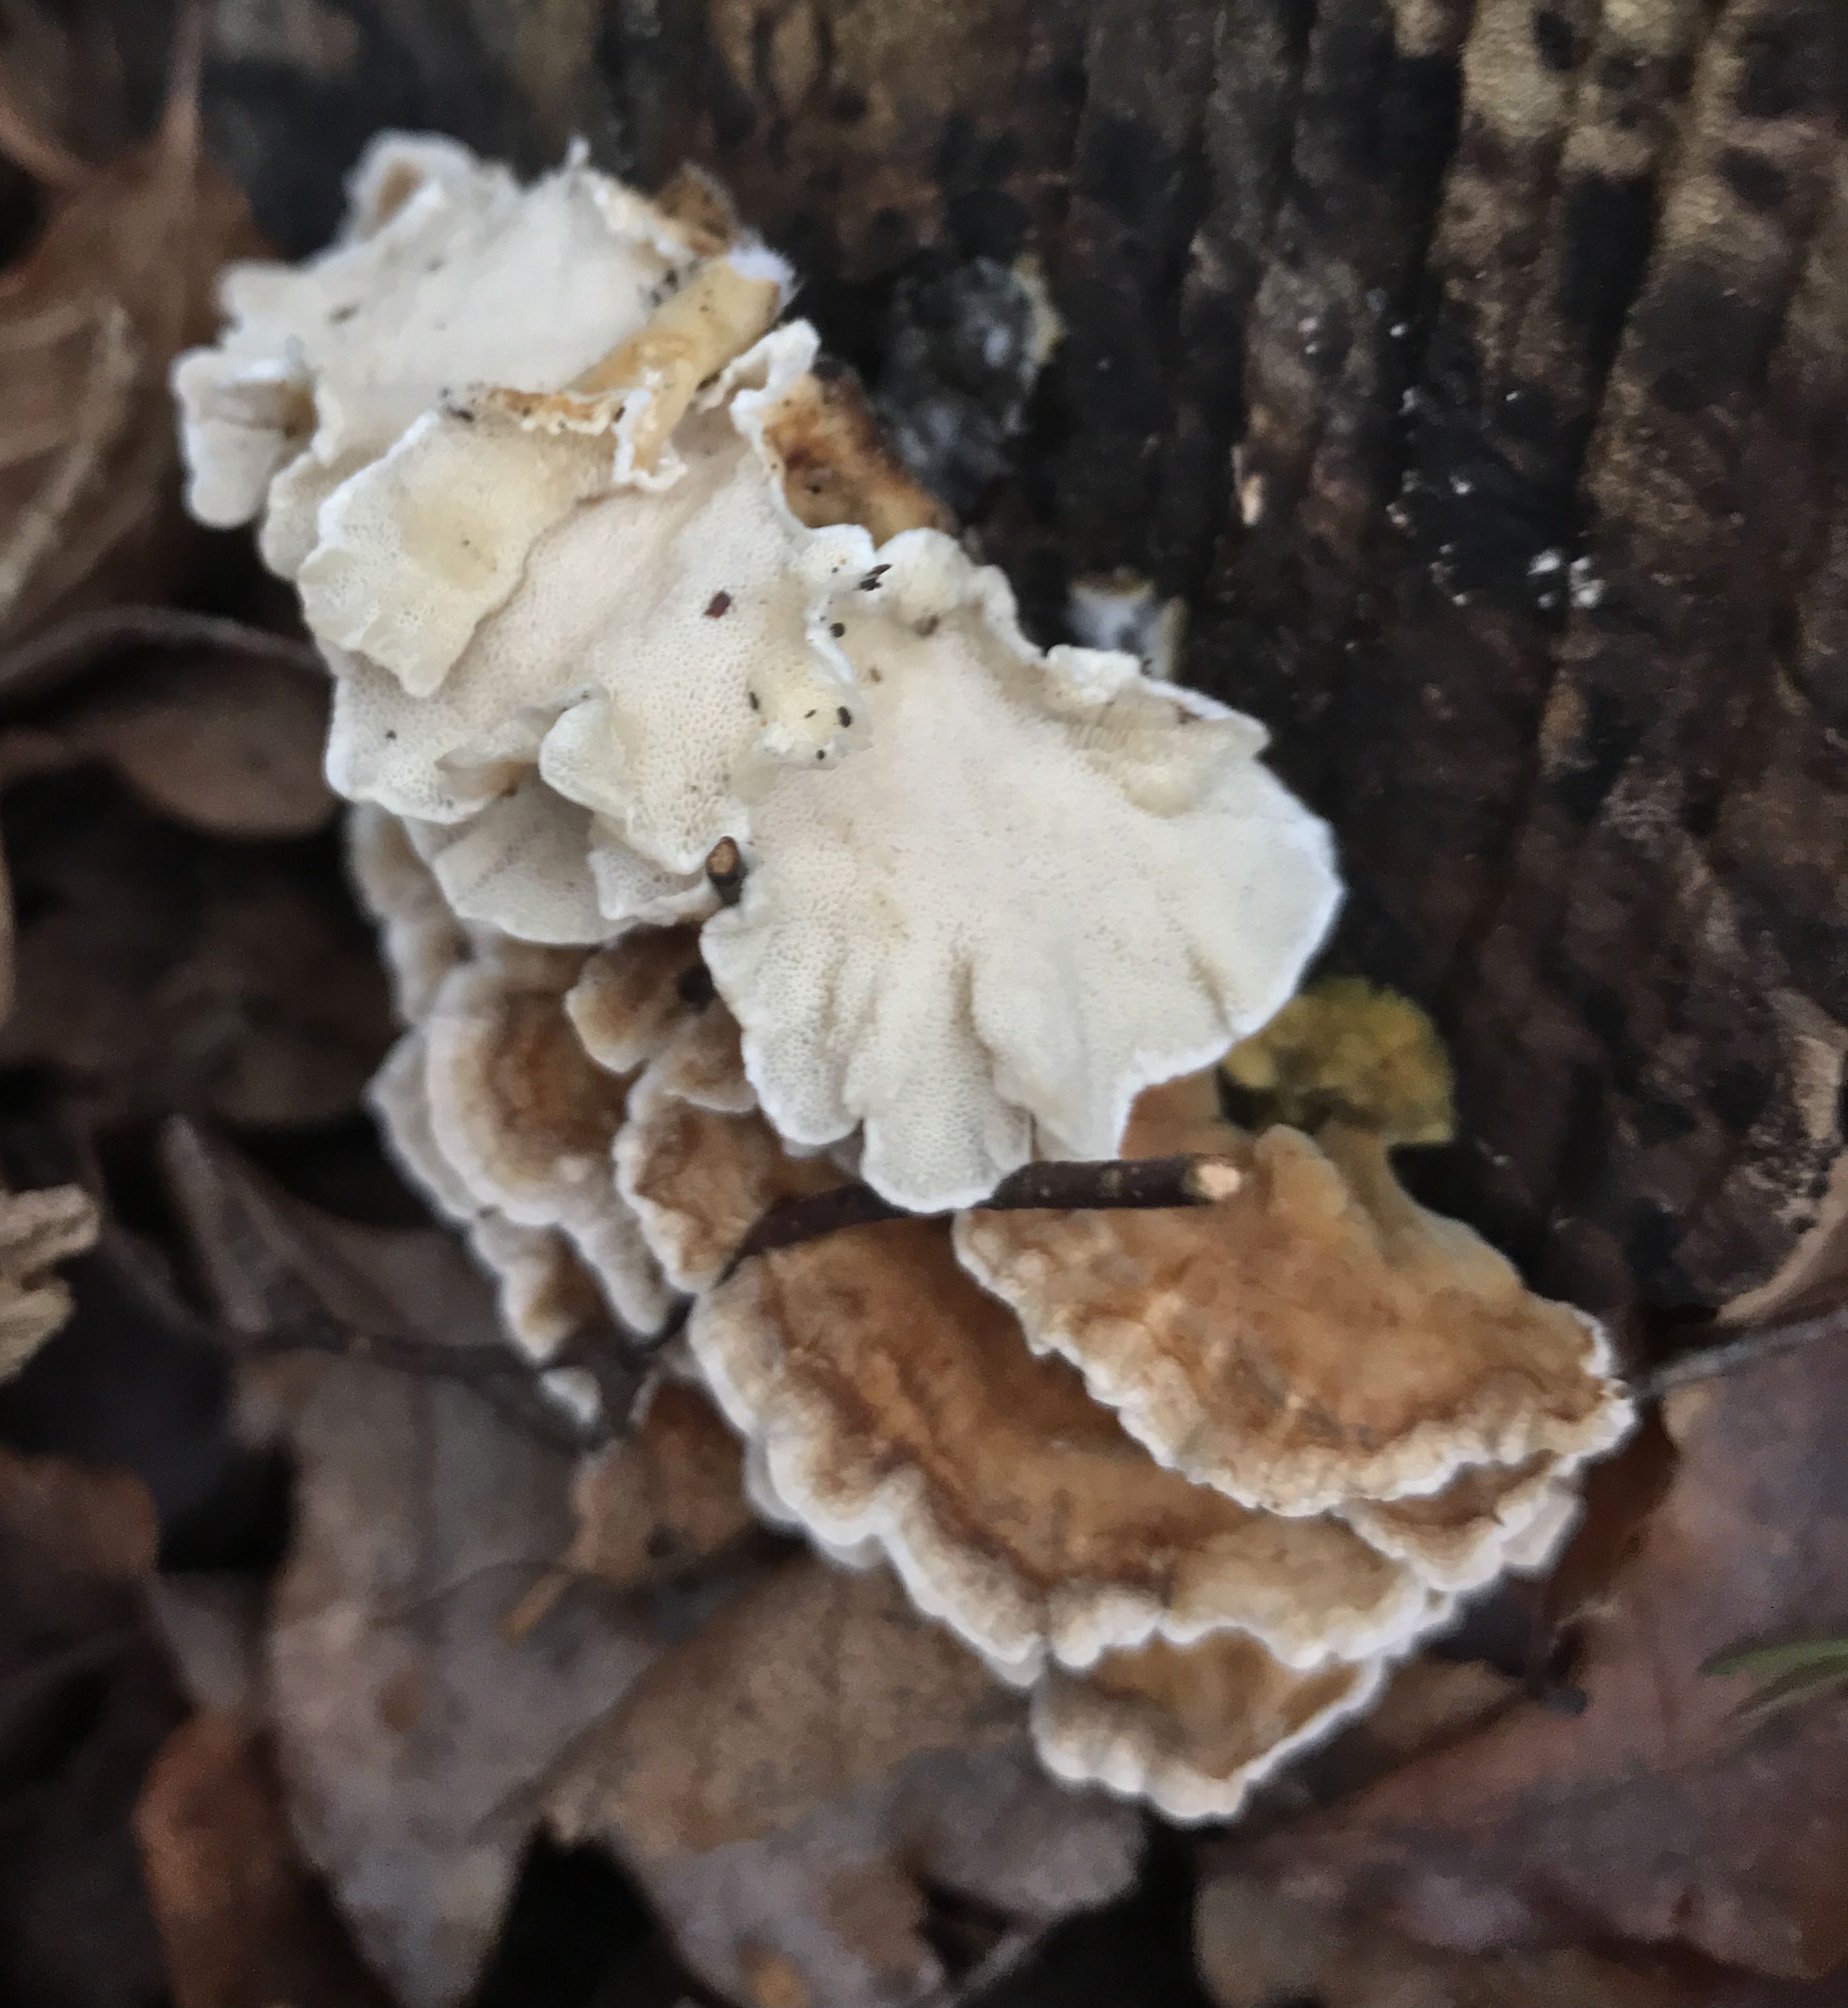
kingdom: Fungi
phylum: Basidiomycota
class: Agaricomycetes
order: Polyporales
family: Polyporaceae
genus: Trametes
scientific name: Trametes ochracea
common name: bæltet læderporesvamp
